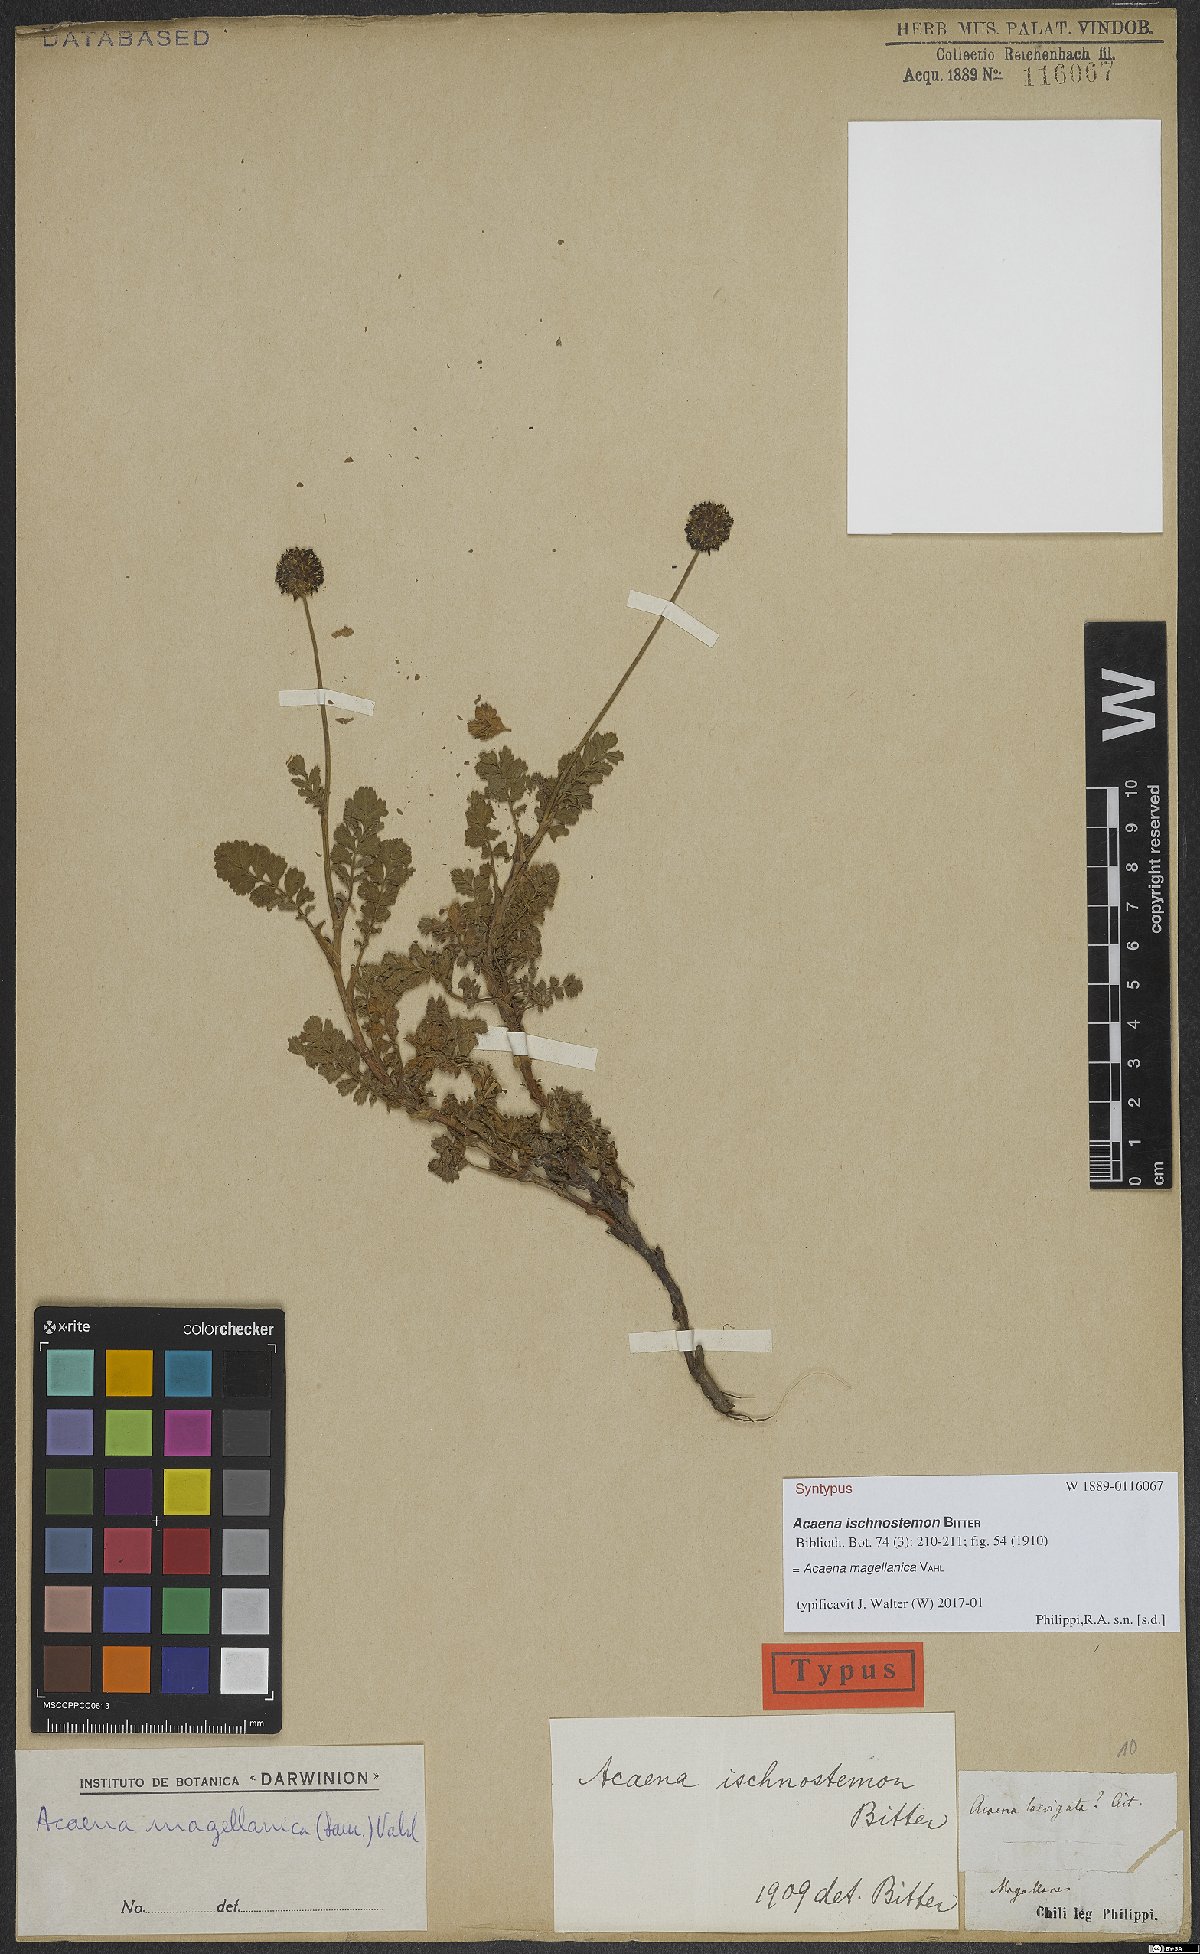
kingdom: Plantae
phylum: Tracheophyta
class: Magnoliopsida
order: Rosales
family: Rosaceae
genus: Acaena
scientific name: Acaena magellanica
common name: New zealand burr
